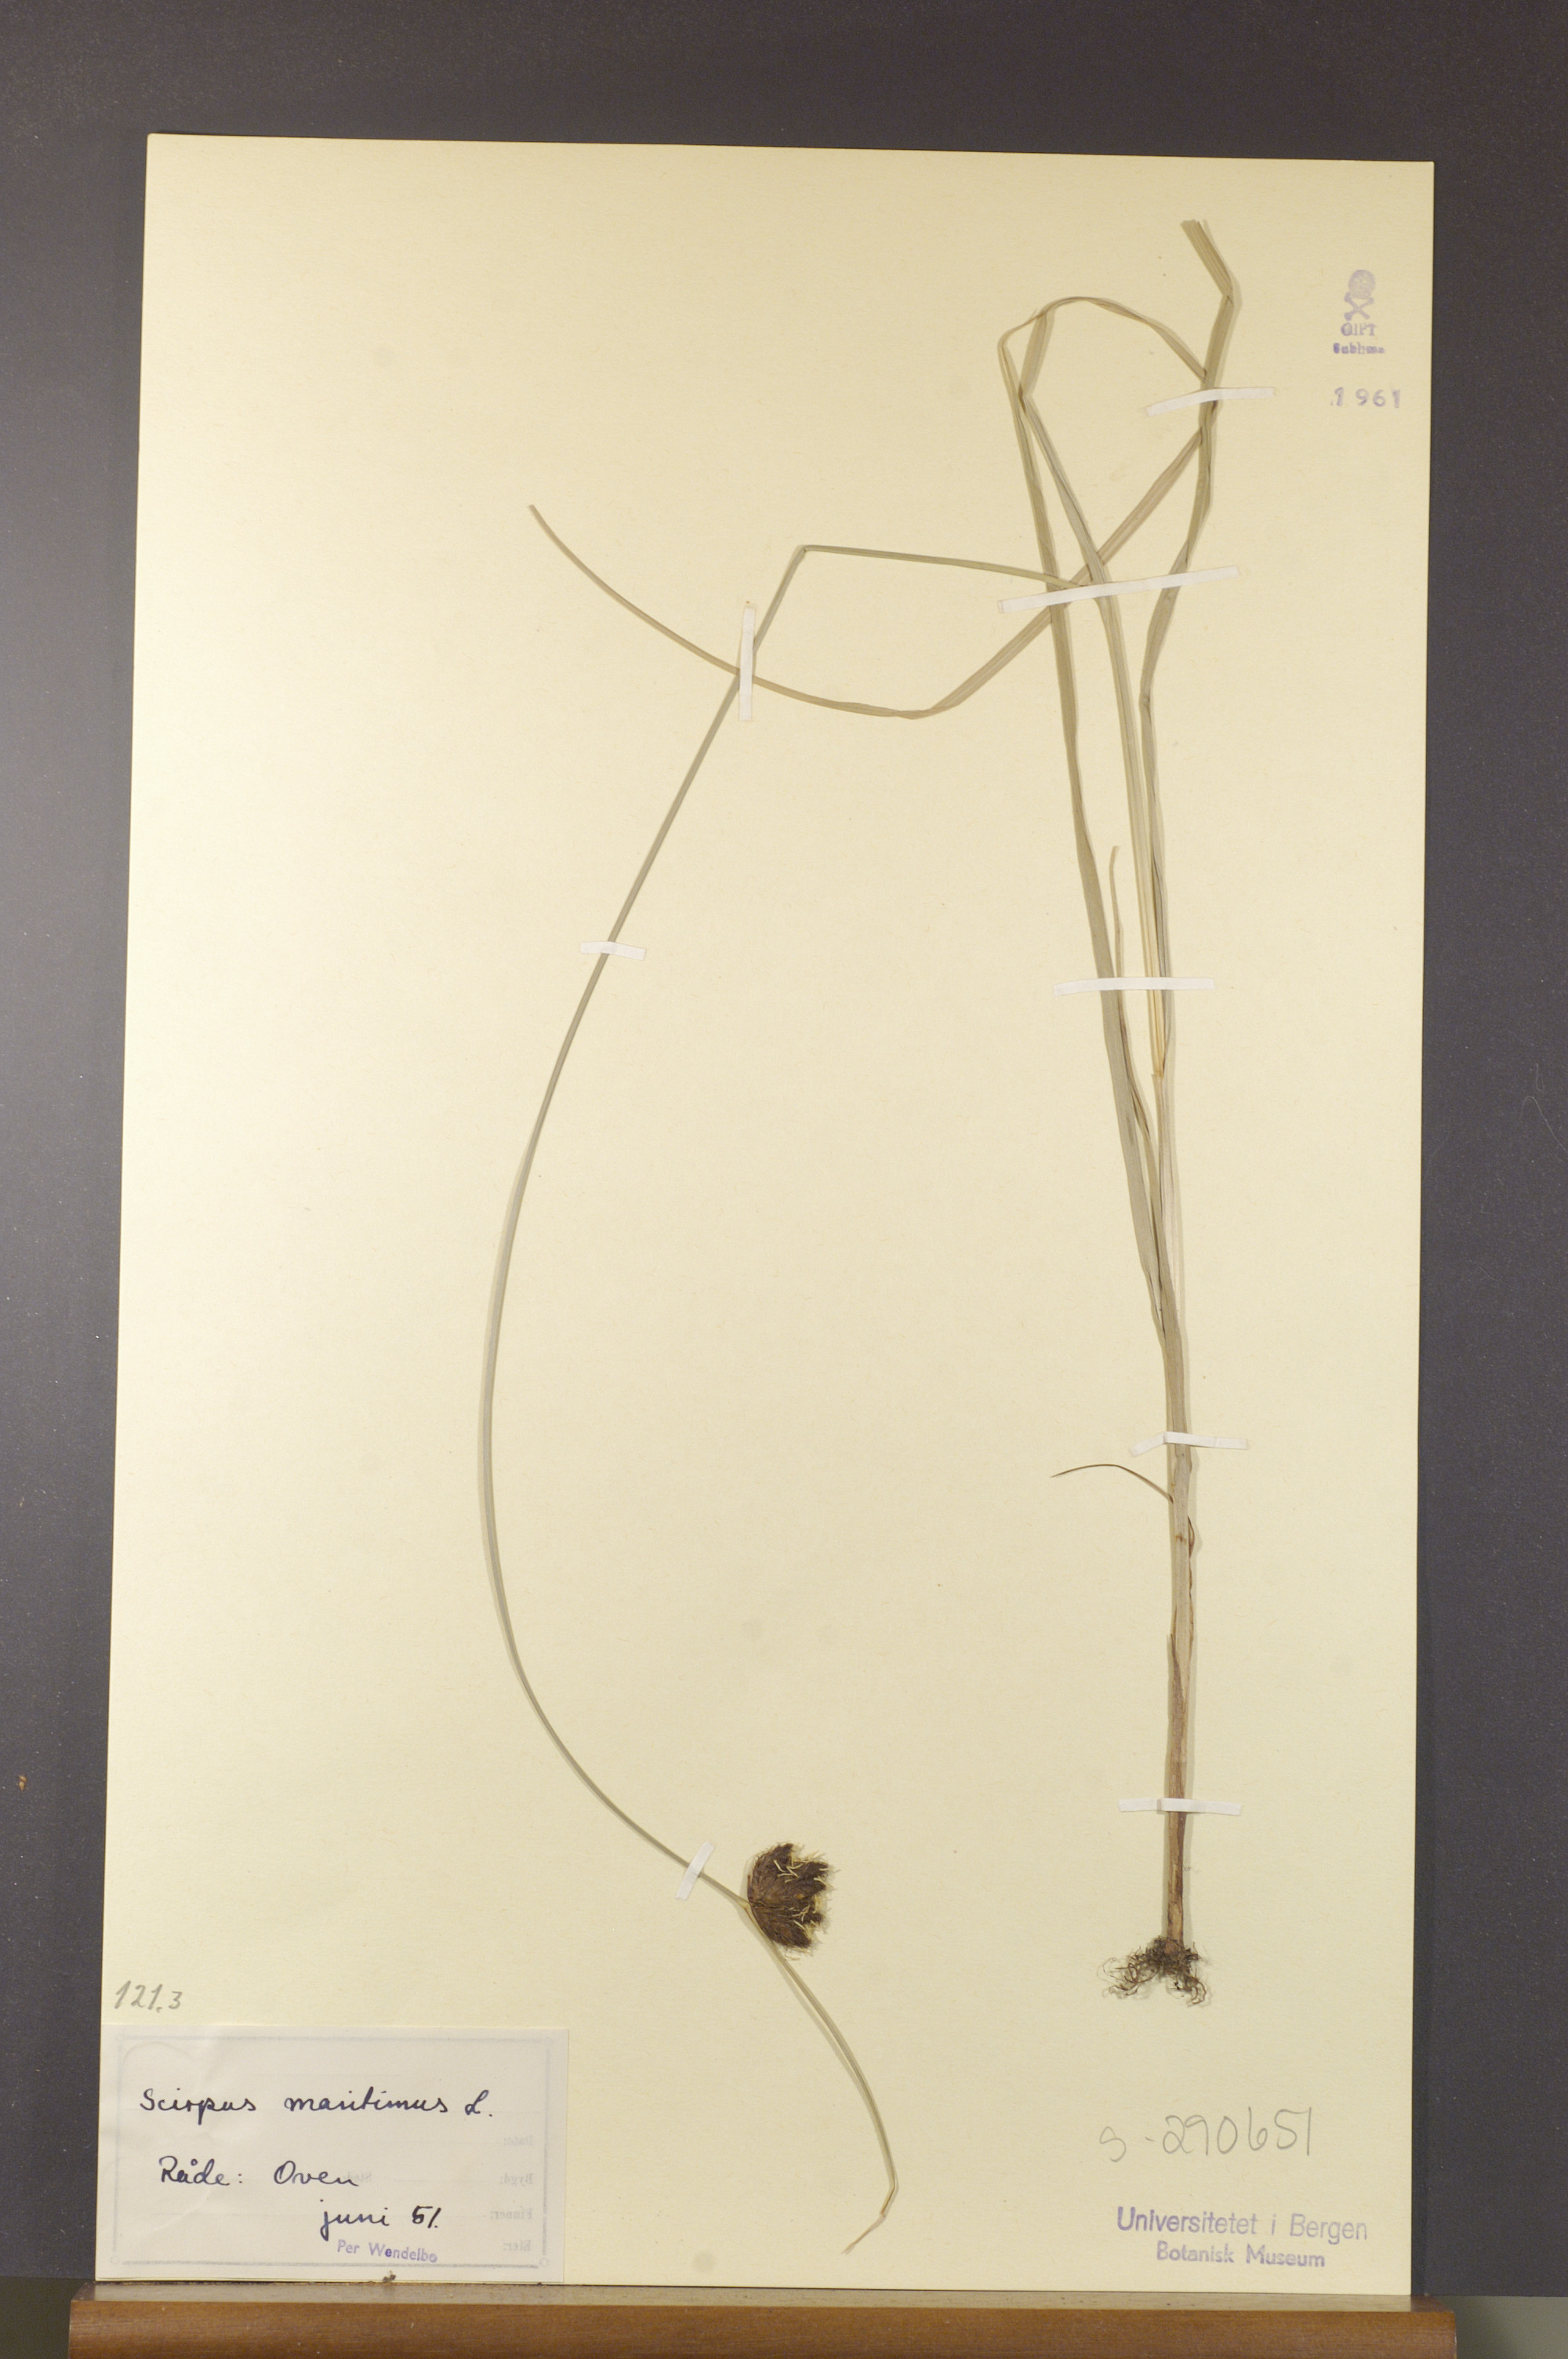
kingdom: Plantae
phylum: Tracheophyta
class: Liliopsida
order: Poales
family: Cyperaceae
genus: Bolboschoenus
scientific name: Bolboschoenus maritimus
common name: Sea club-rush
